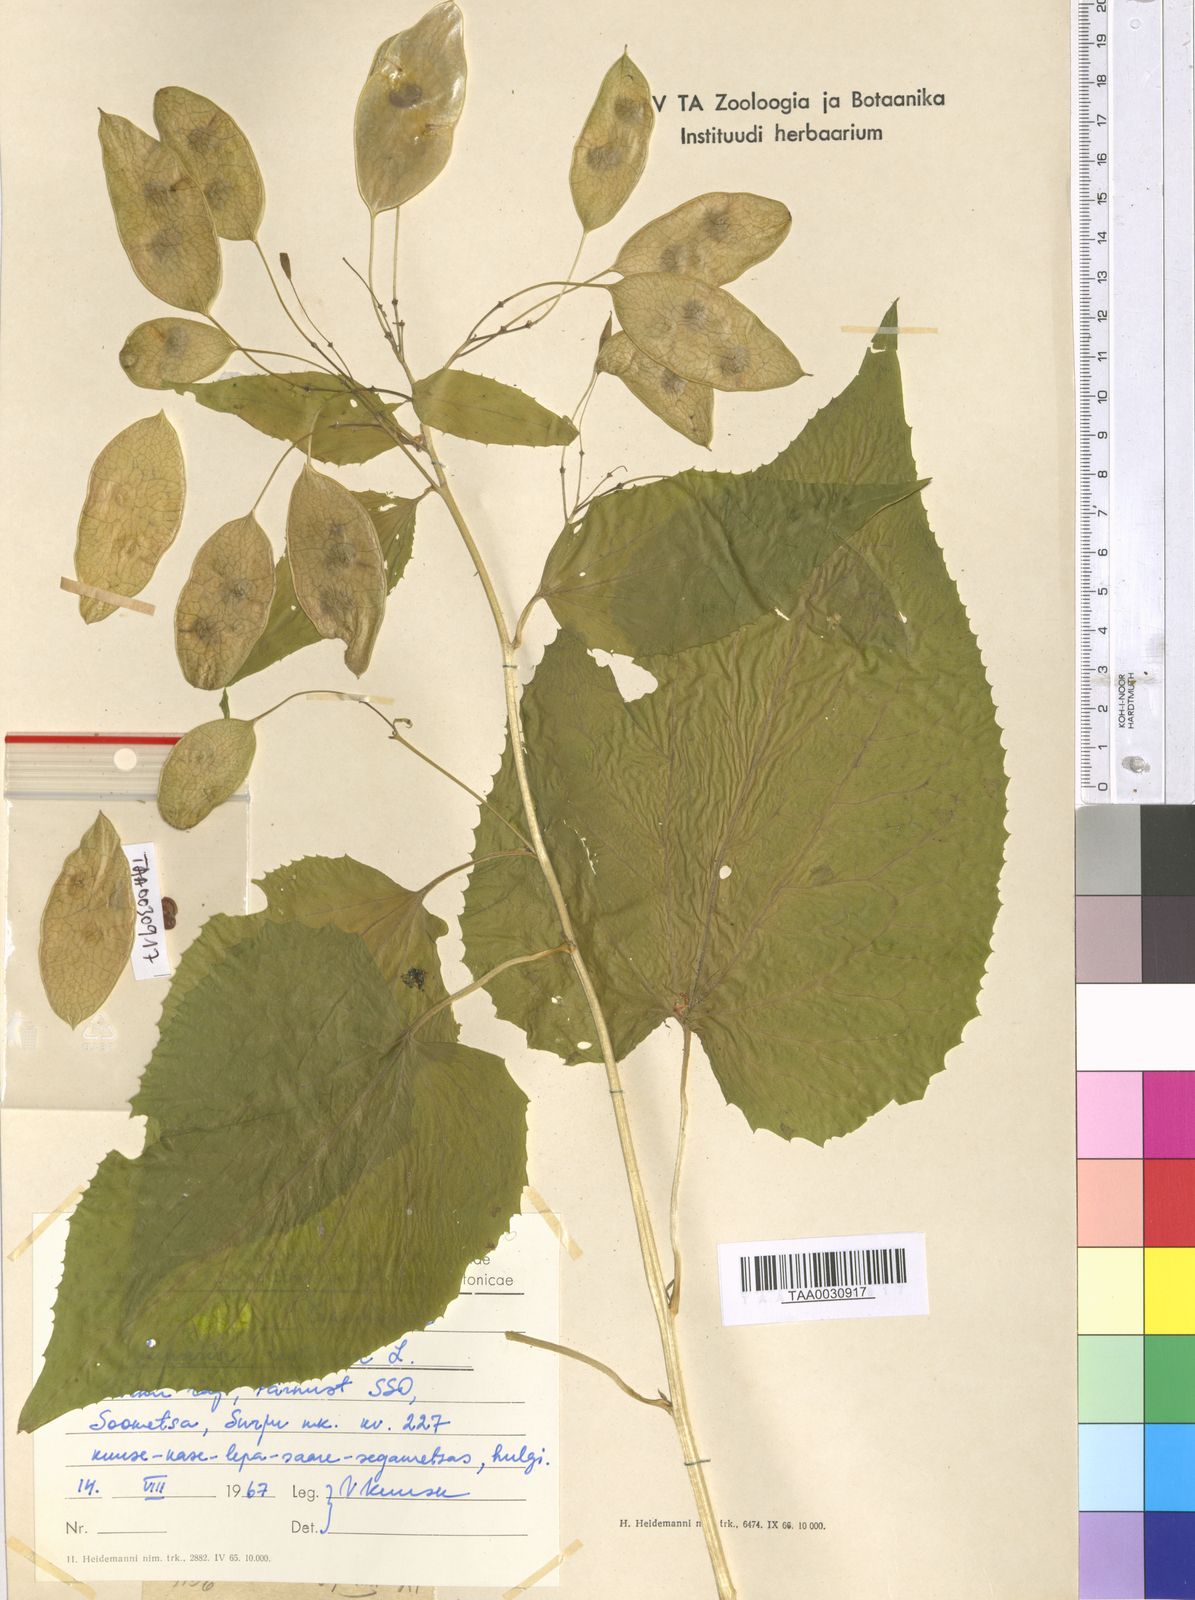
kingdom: Plantae
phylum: Tracheophyta
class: Magnoliopsida
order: Brassicales
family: Brassicaceae
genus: Lunaria
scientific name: Lunaria rediviva
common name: Perennial honesty
